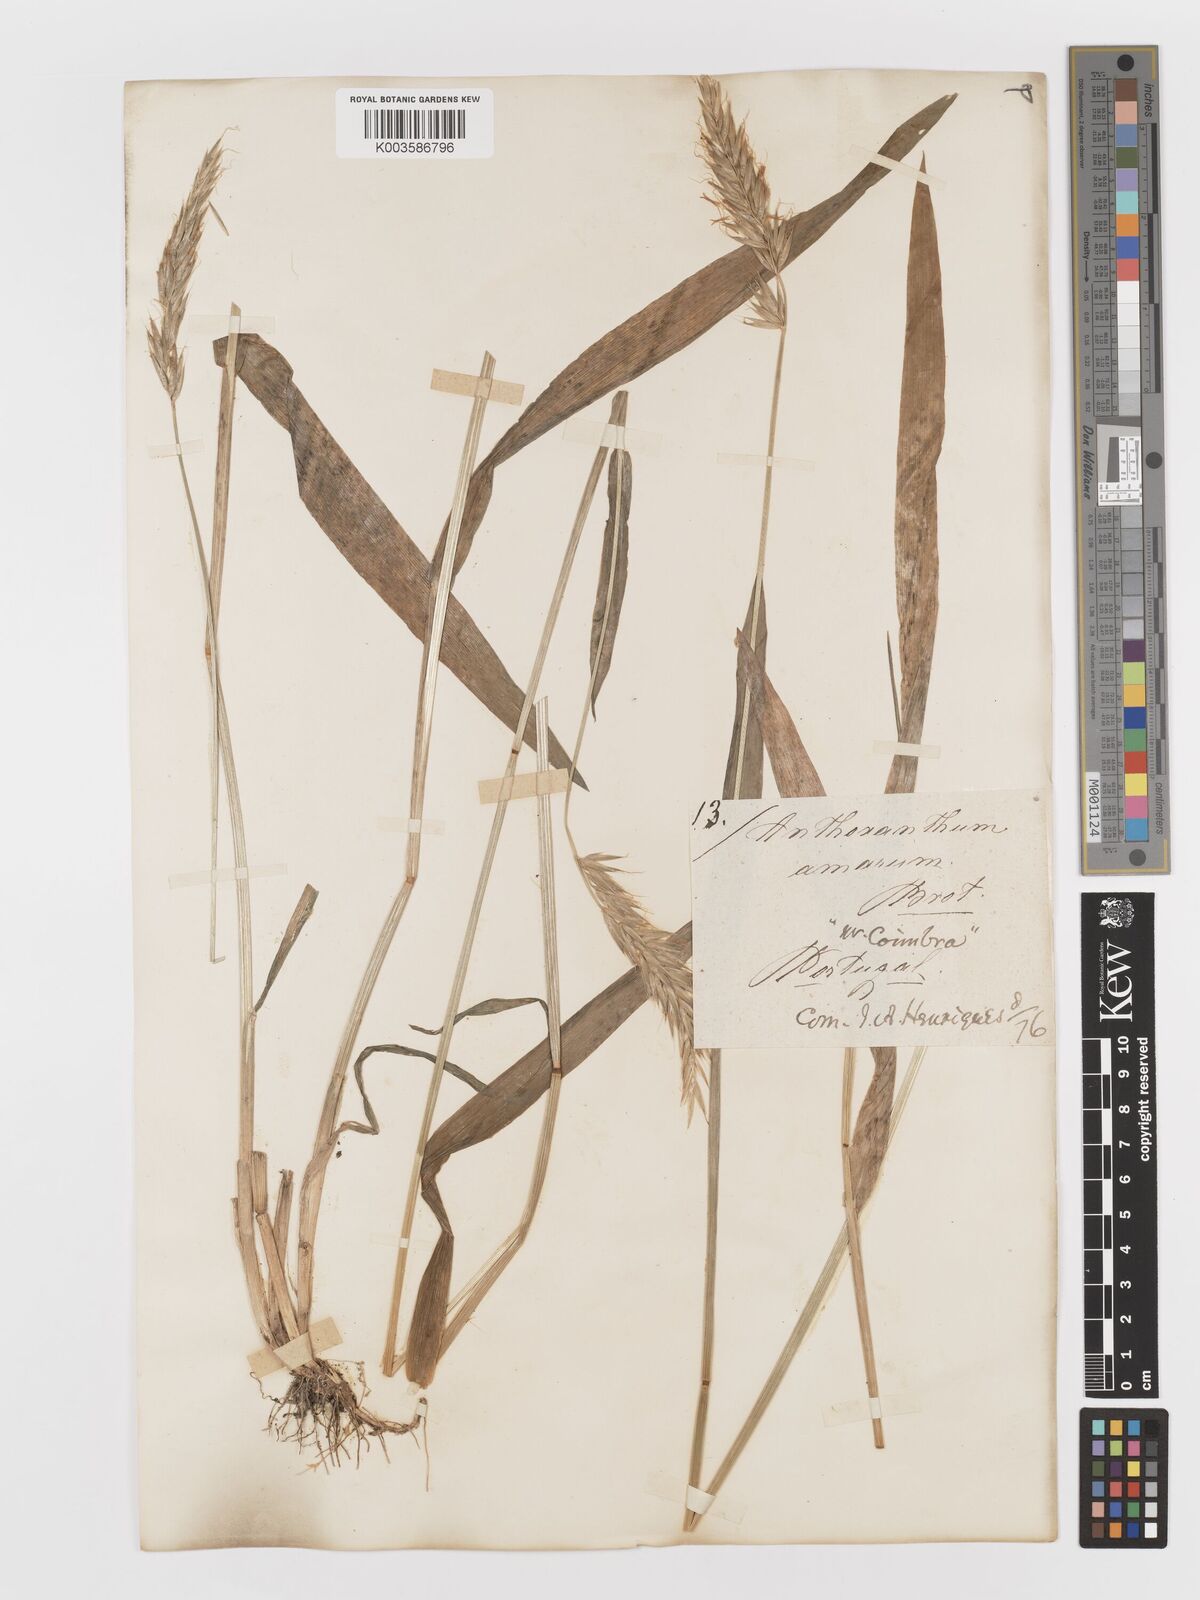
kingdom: Plantae
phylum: Tracheophyta
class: Liliopsida
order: Poales
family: Poaceae
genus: Anthoxanthum
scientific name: Anthoxanthum amarum
